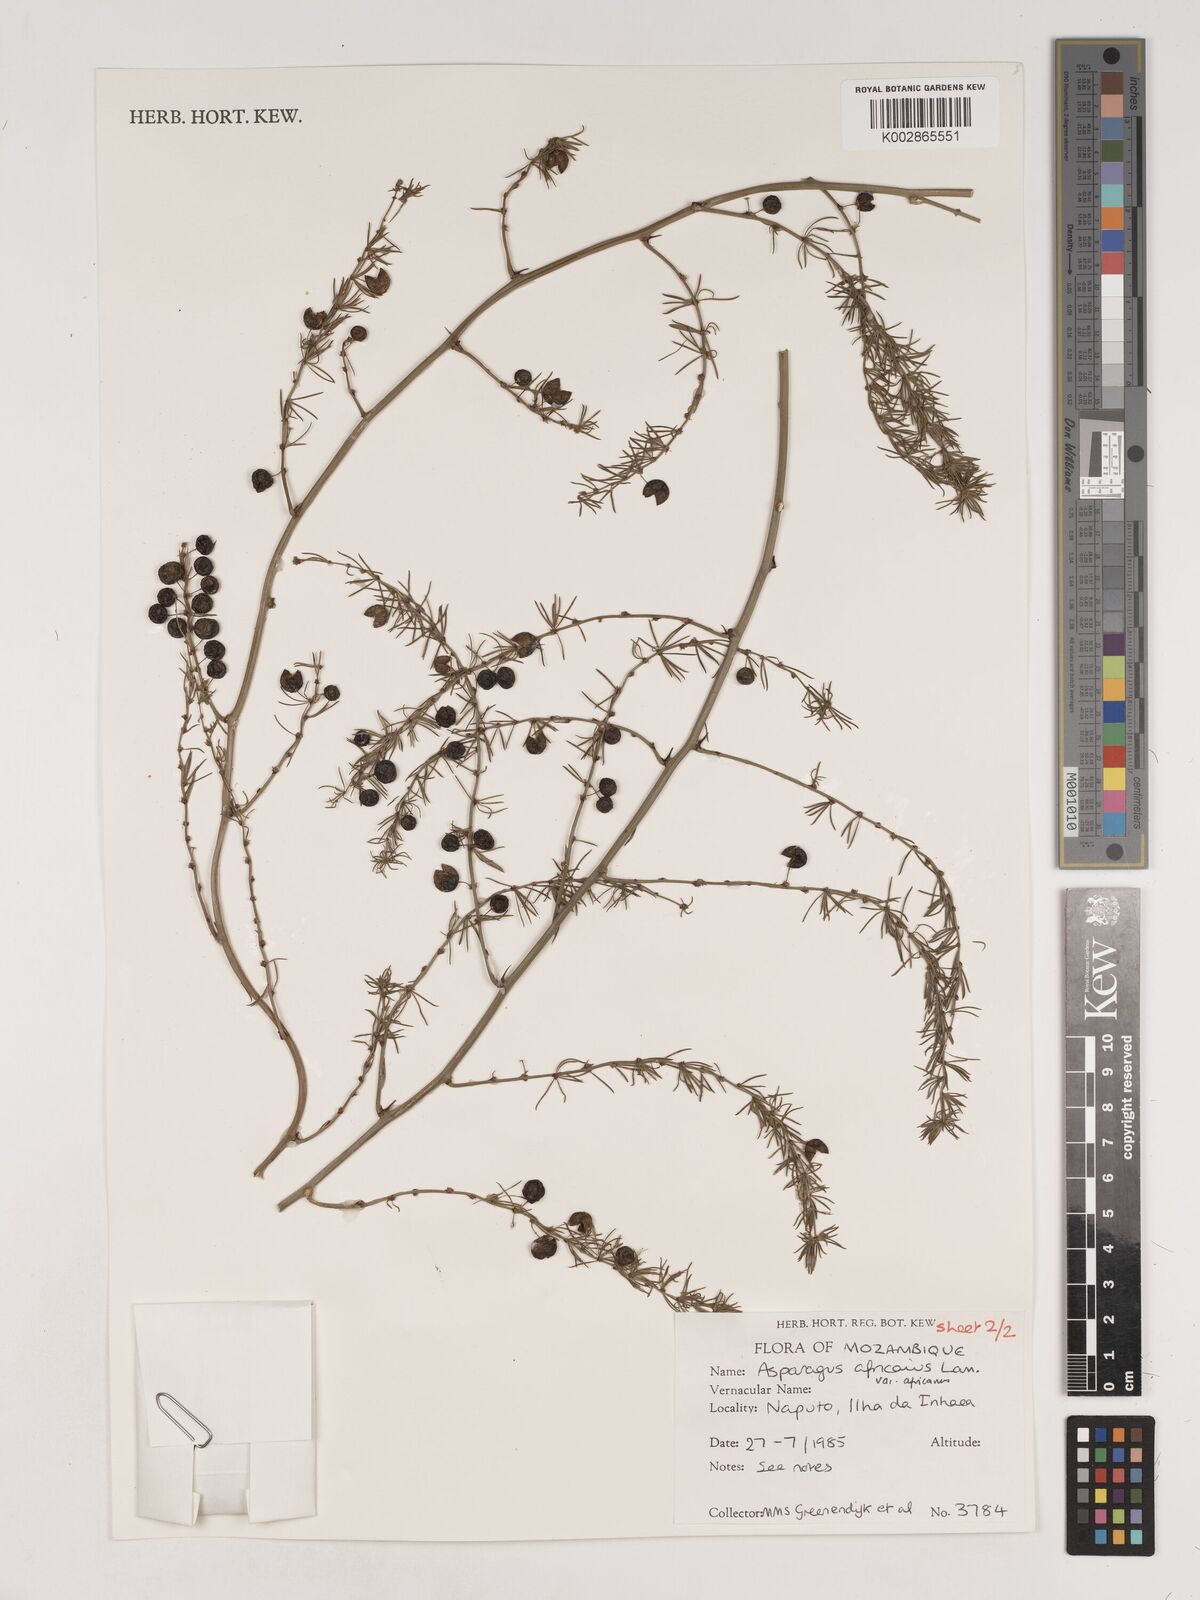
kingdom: Plantae
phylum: Tracheophyta
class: Liliopsida
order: Asparagales
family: Asparagaceae
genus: Asparagus
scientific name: Asparagus africanus
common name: Asparagus-fern
